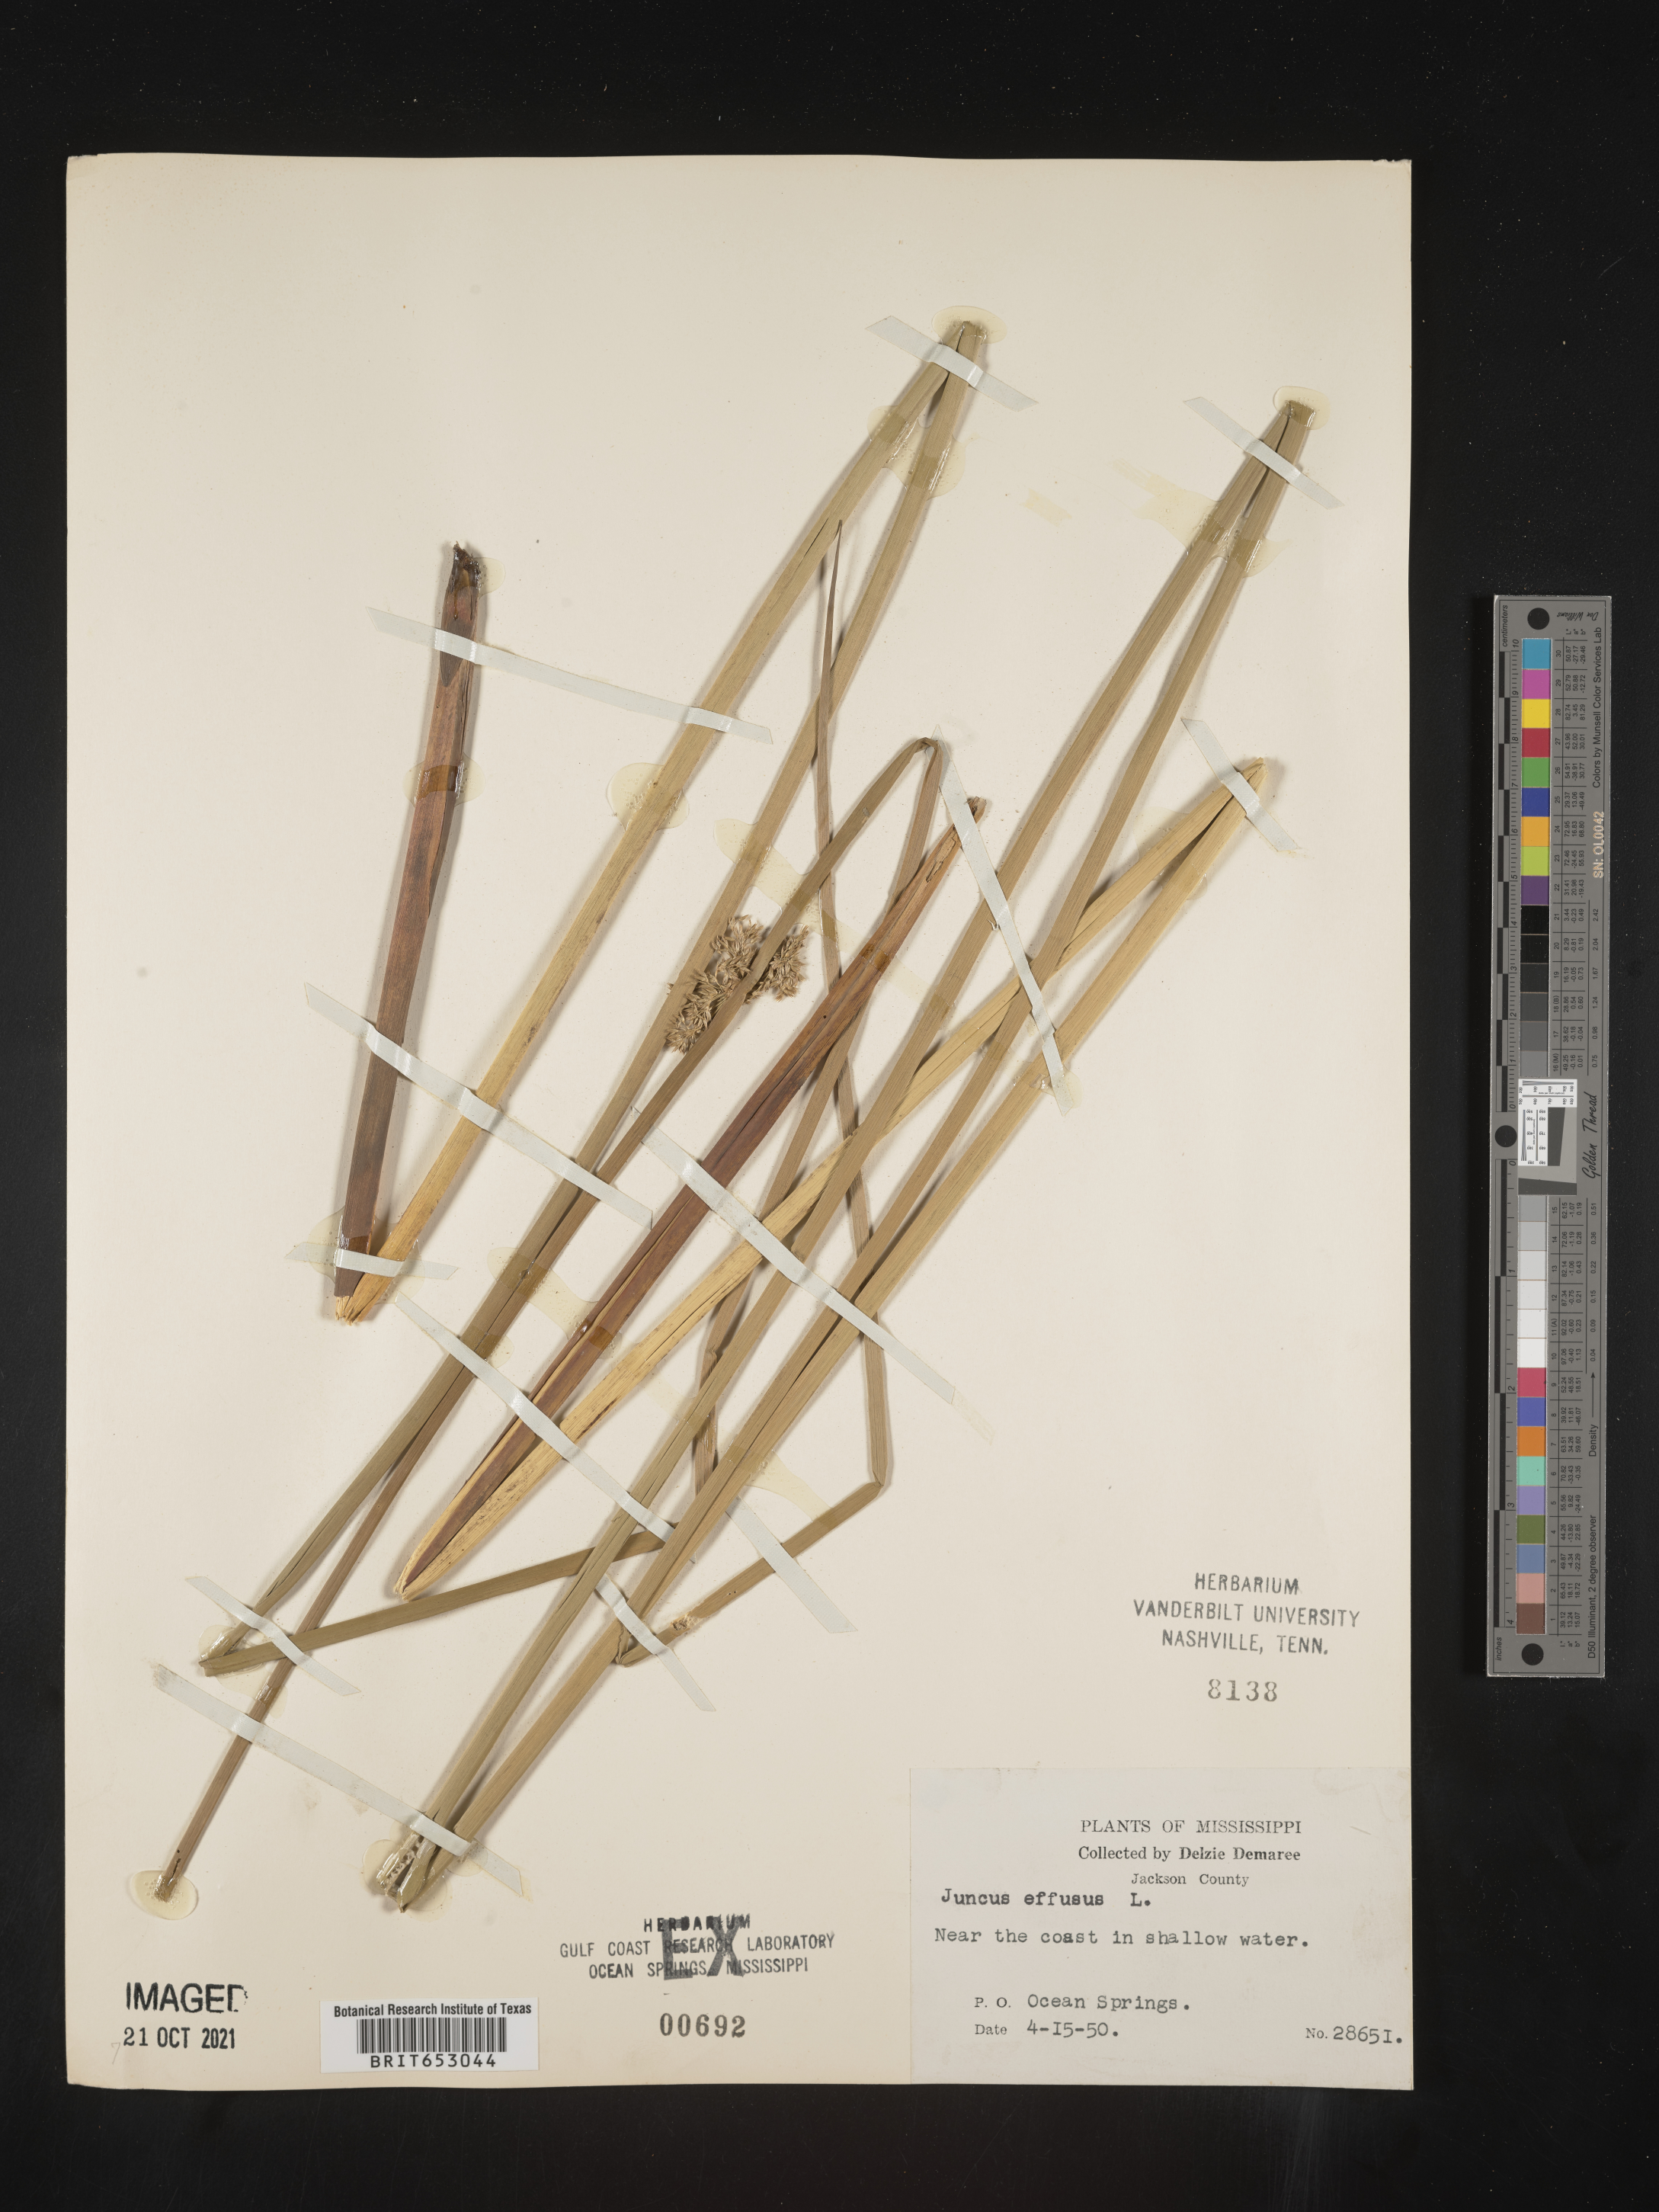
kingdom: Plantae
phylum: Tracheophyta
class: Liliopsida
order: Poales
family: Juncaceae
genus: Juncus
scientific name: Juncus effusus
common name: Soft rush
